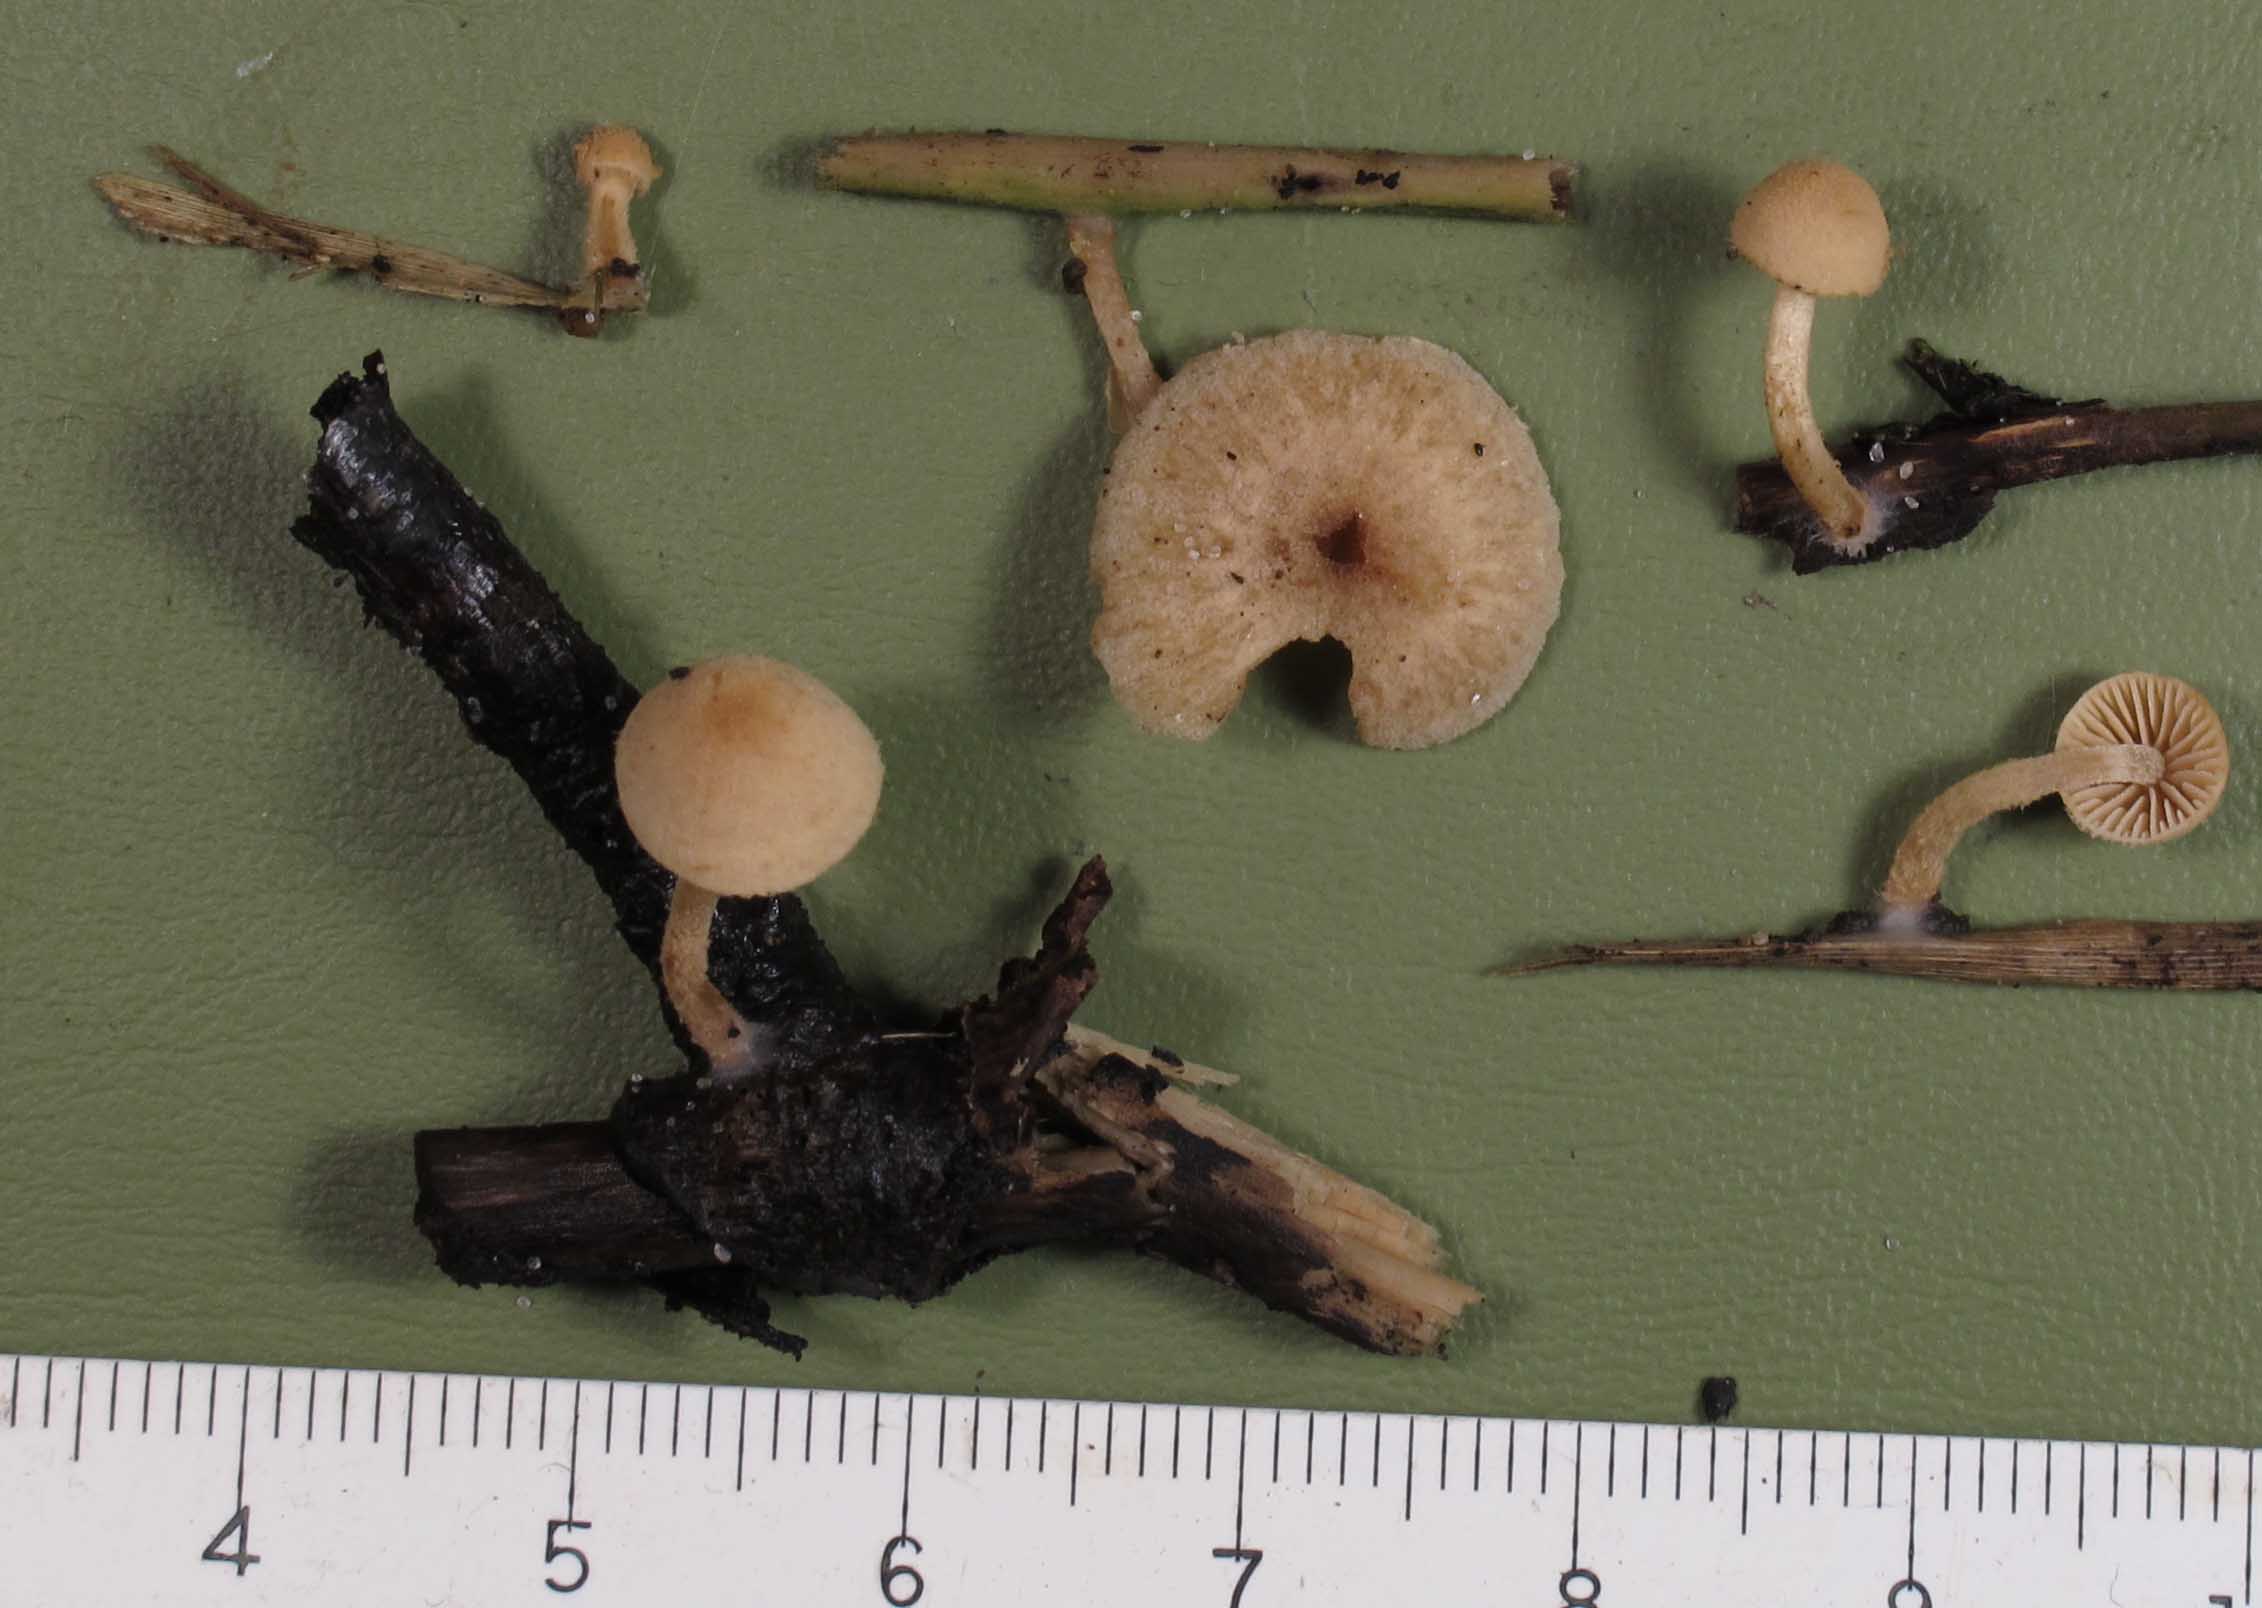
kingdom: Fungi
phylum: Basidiomycota
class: Agaricomycetes
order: Agaricales
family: Tubariaceae
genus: Flammulaster
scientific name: Flammulaster carpophilus
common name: bøge-grynskælhat
